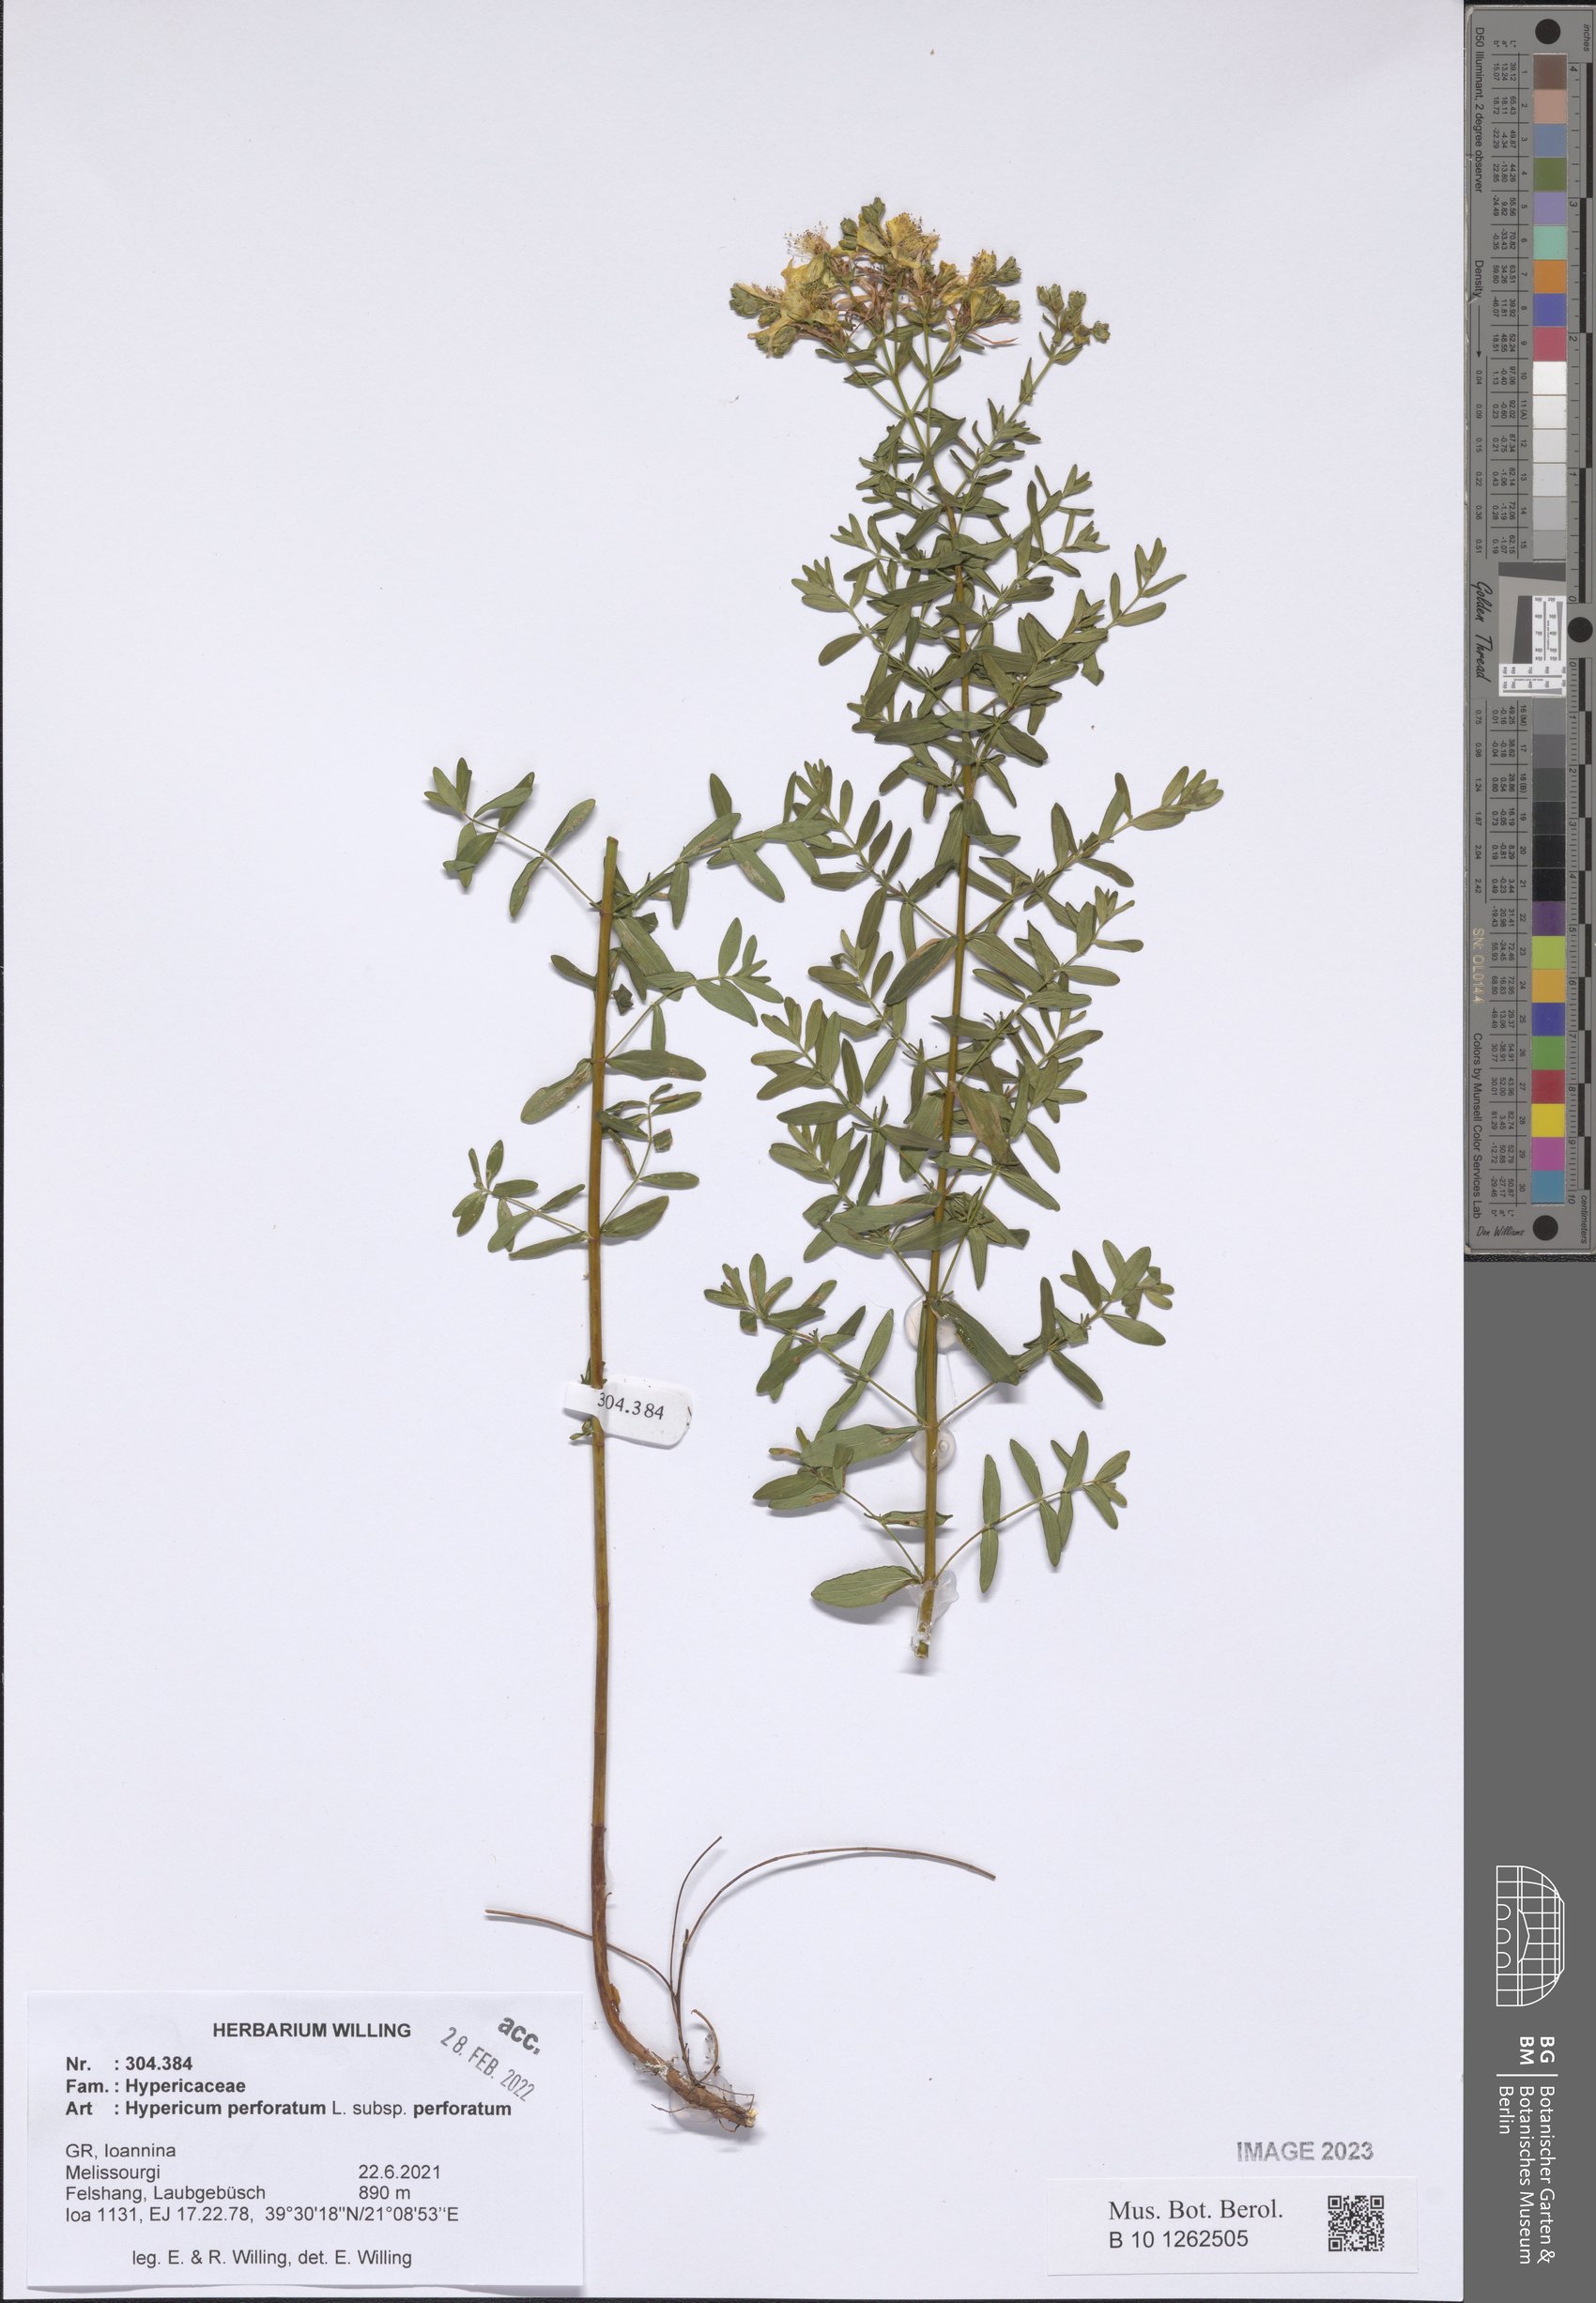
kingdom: Plantae
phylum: Tracheophyta
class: Magnoliopsida
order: Malpighiales
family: Hypericaceae
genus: Hypericum
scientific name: Hypericum perforatum
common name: Common st. johnswort
